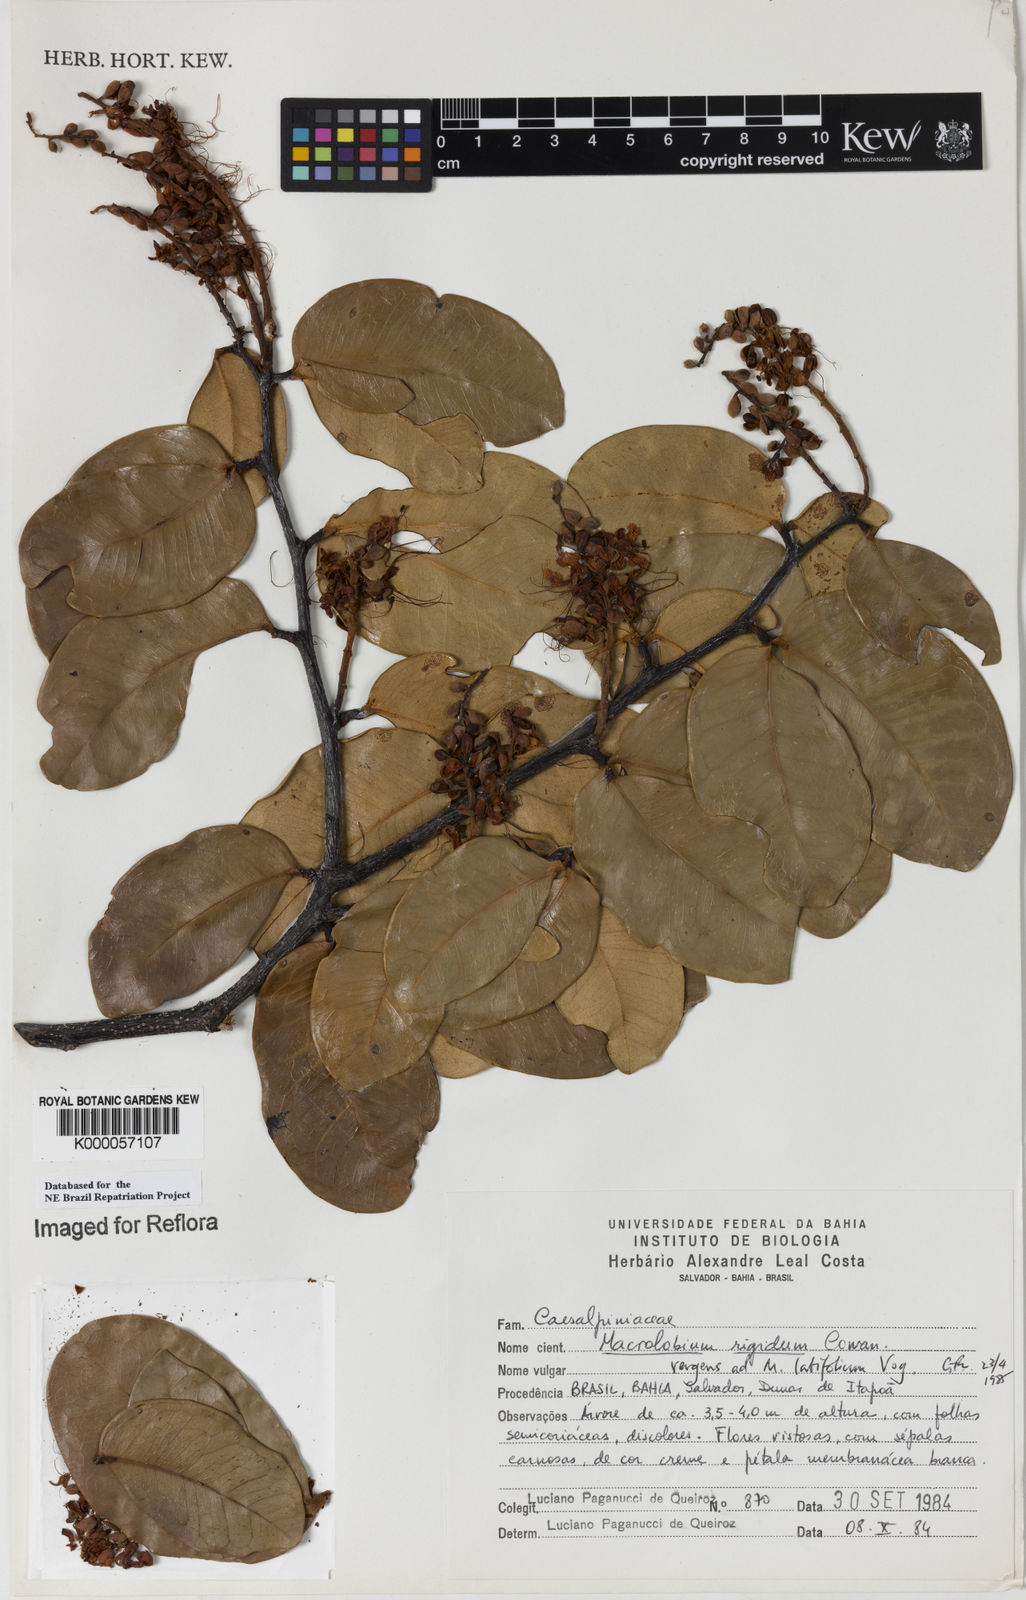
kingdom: Plantae
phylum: Tracheophyta
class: Magnoliopsida
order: Fabales
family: Fabaceae
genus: Macrolobium
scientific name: Macrolobium rigidum
